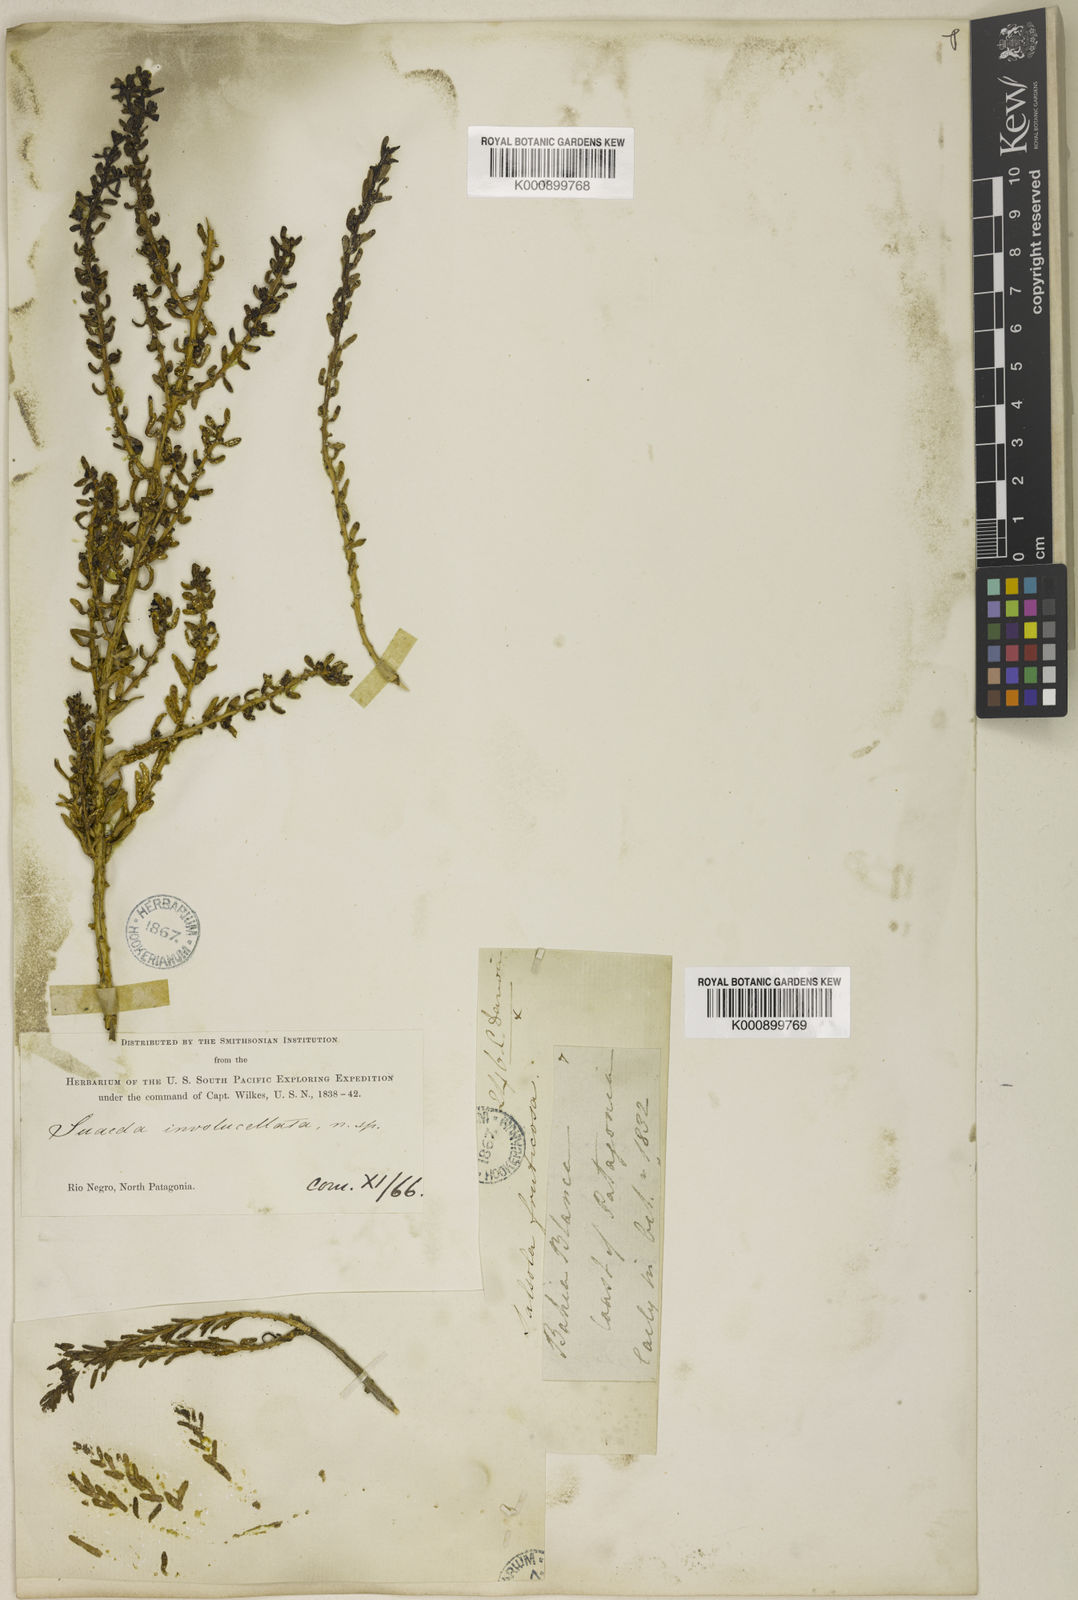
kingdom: Plantae
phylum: Tracheophyta
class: Magnoliopsida
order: Caryophyllales
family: Amaranthaceae
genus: Suaeda
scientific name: Suaeda
